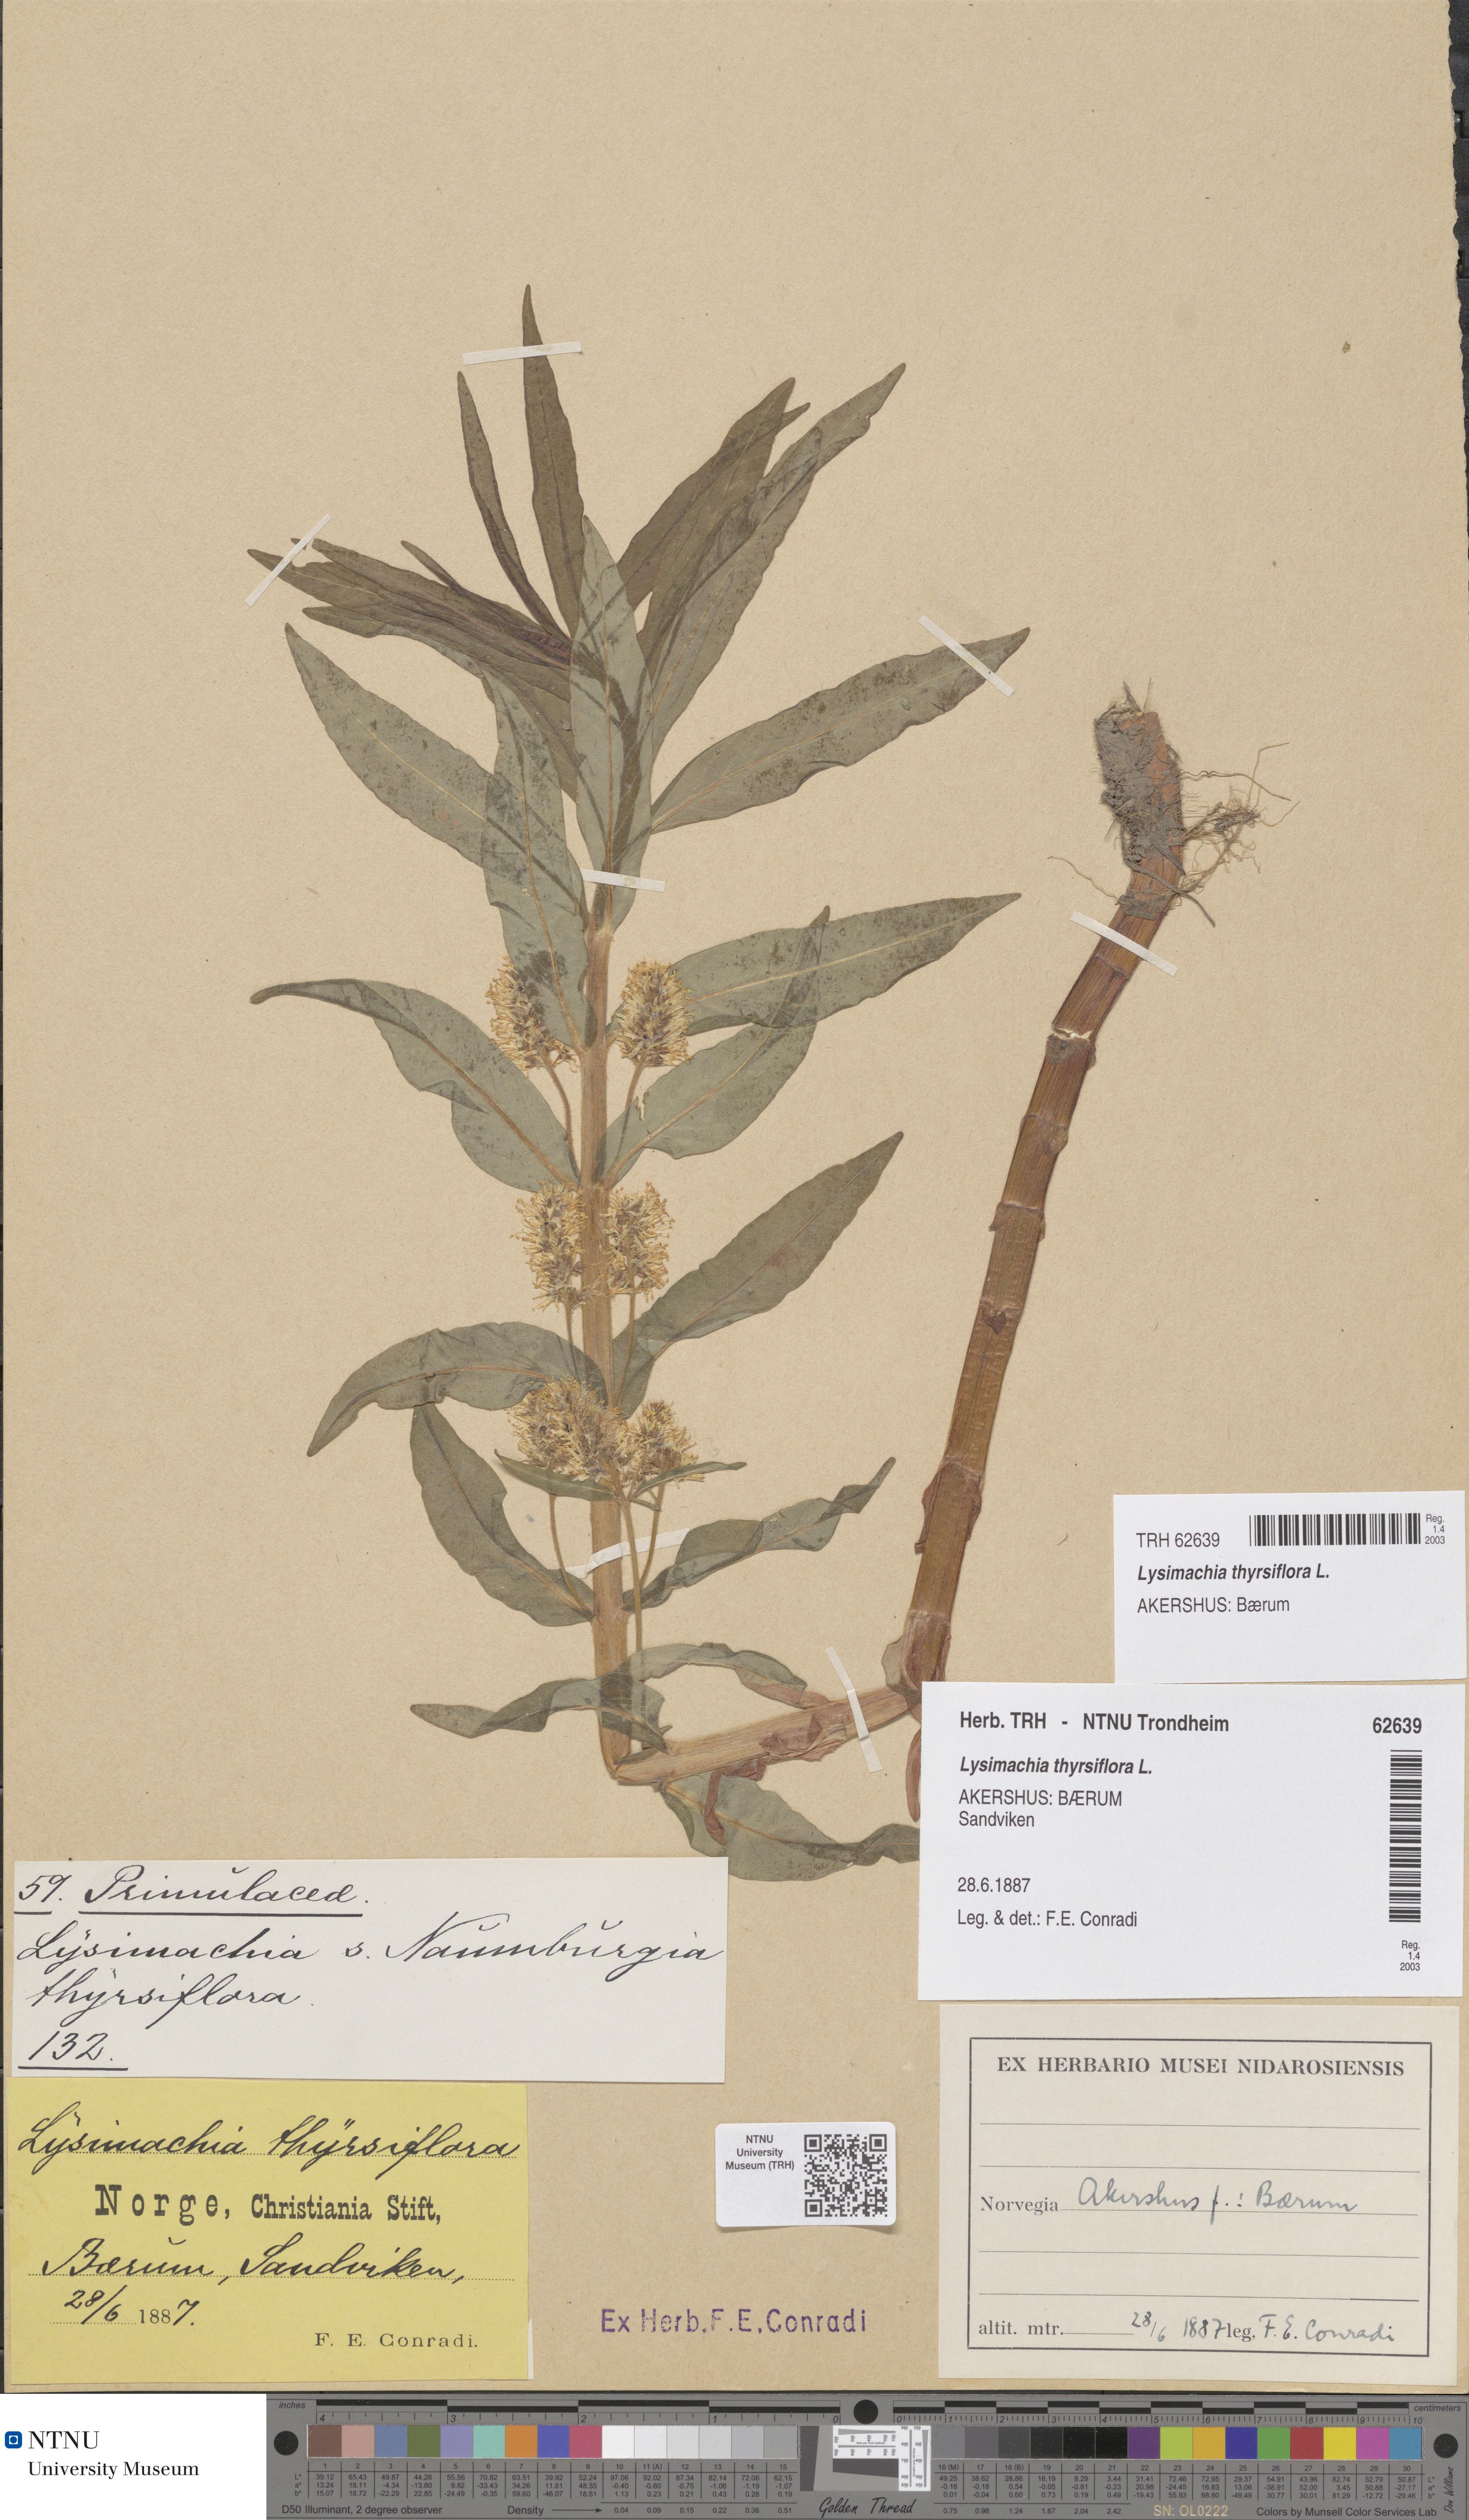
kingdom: Plantae
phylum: Tracheophyta
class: Magnoliopsida
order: Ericales
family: Primulaceae
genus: Lysimachia
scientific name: Lysimachia thyrsiflora
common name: Tufted loosestrife
